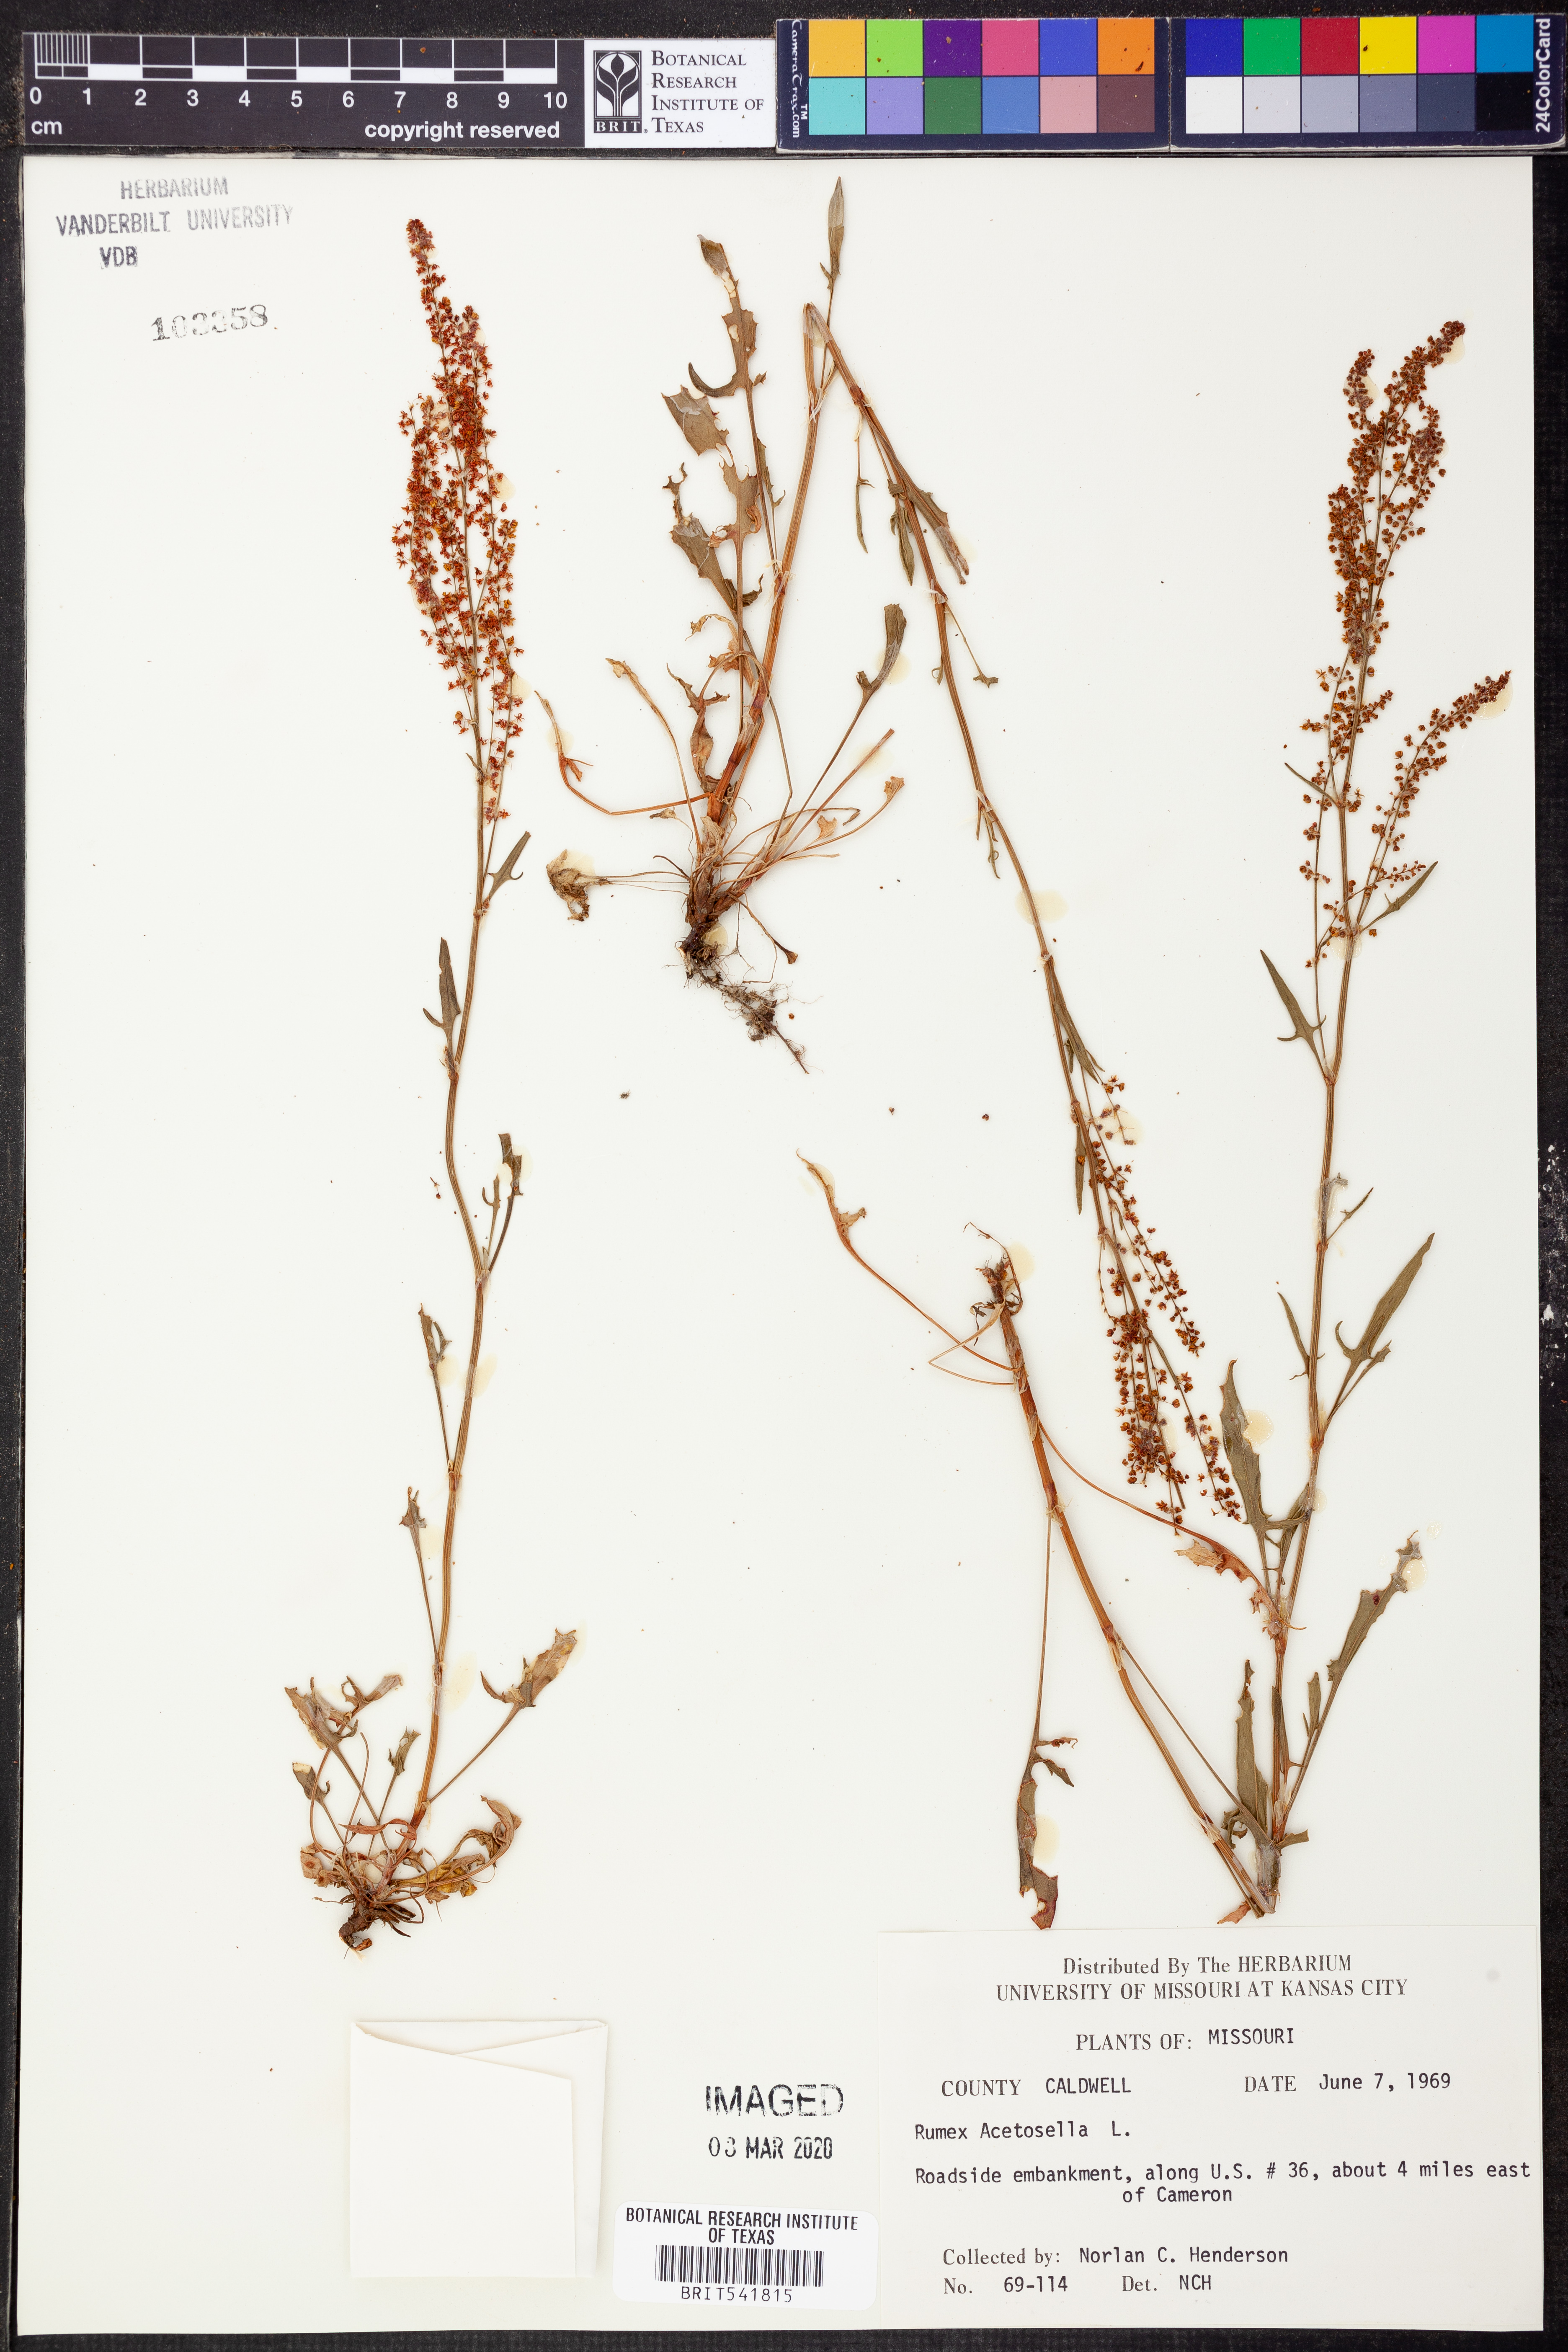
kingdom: Plantae
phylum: Tracheophyta
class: Magnoliopsida
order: Caryophyllales
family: Polygonaceae
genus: Rumex
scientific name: Rumex acetosella
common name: Common sheep sorrel
